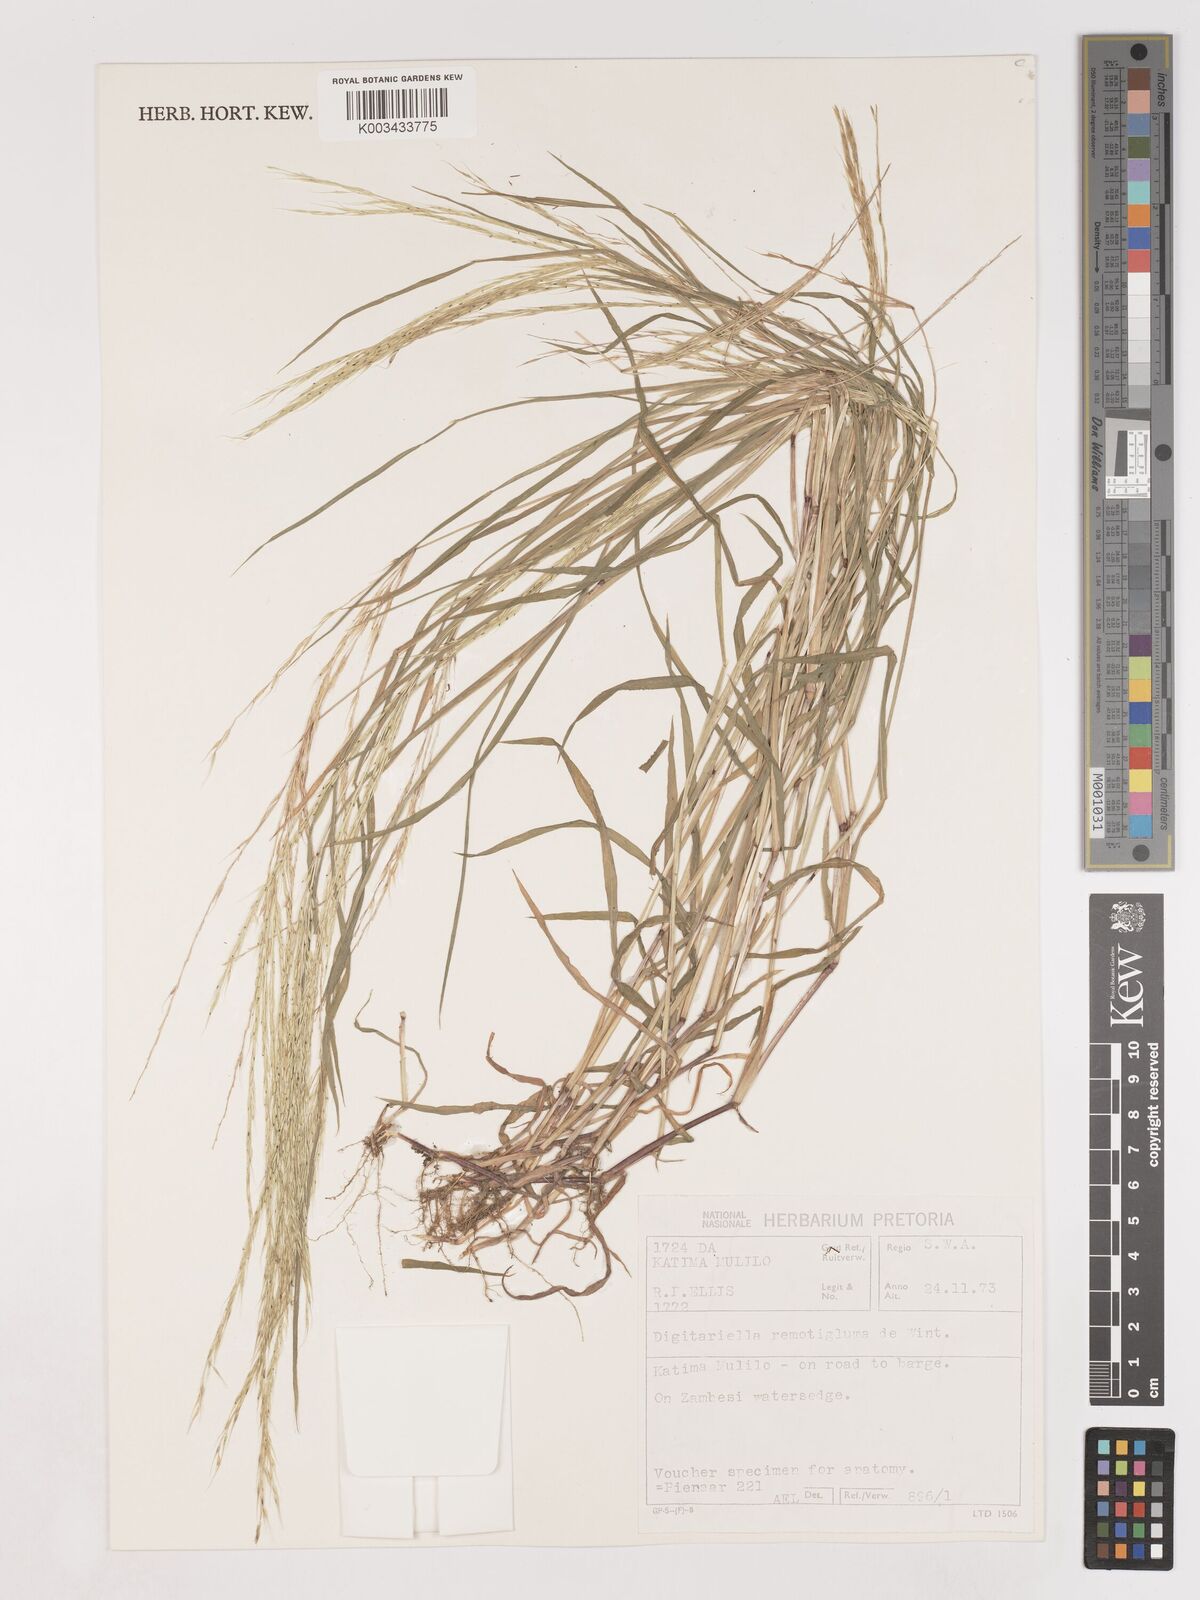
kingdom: Plantae
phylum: Tracheophyta
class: Liliopsida
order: Poales
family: Poaceae
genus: Digitaria
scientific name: Digitaria remotigluma
